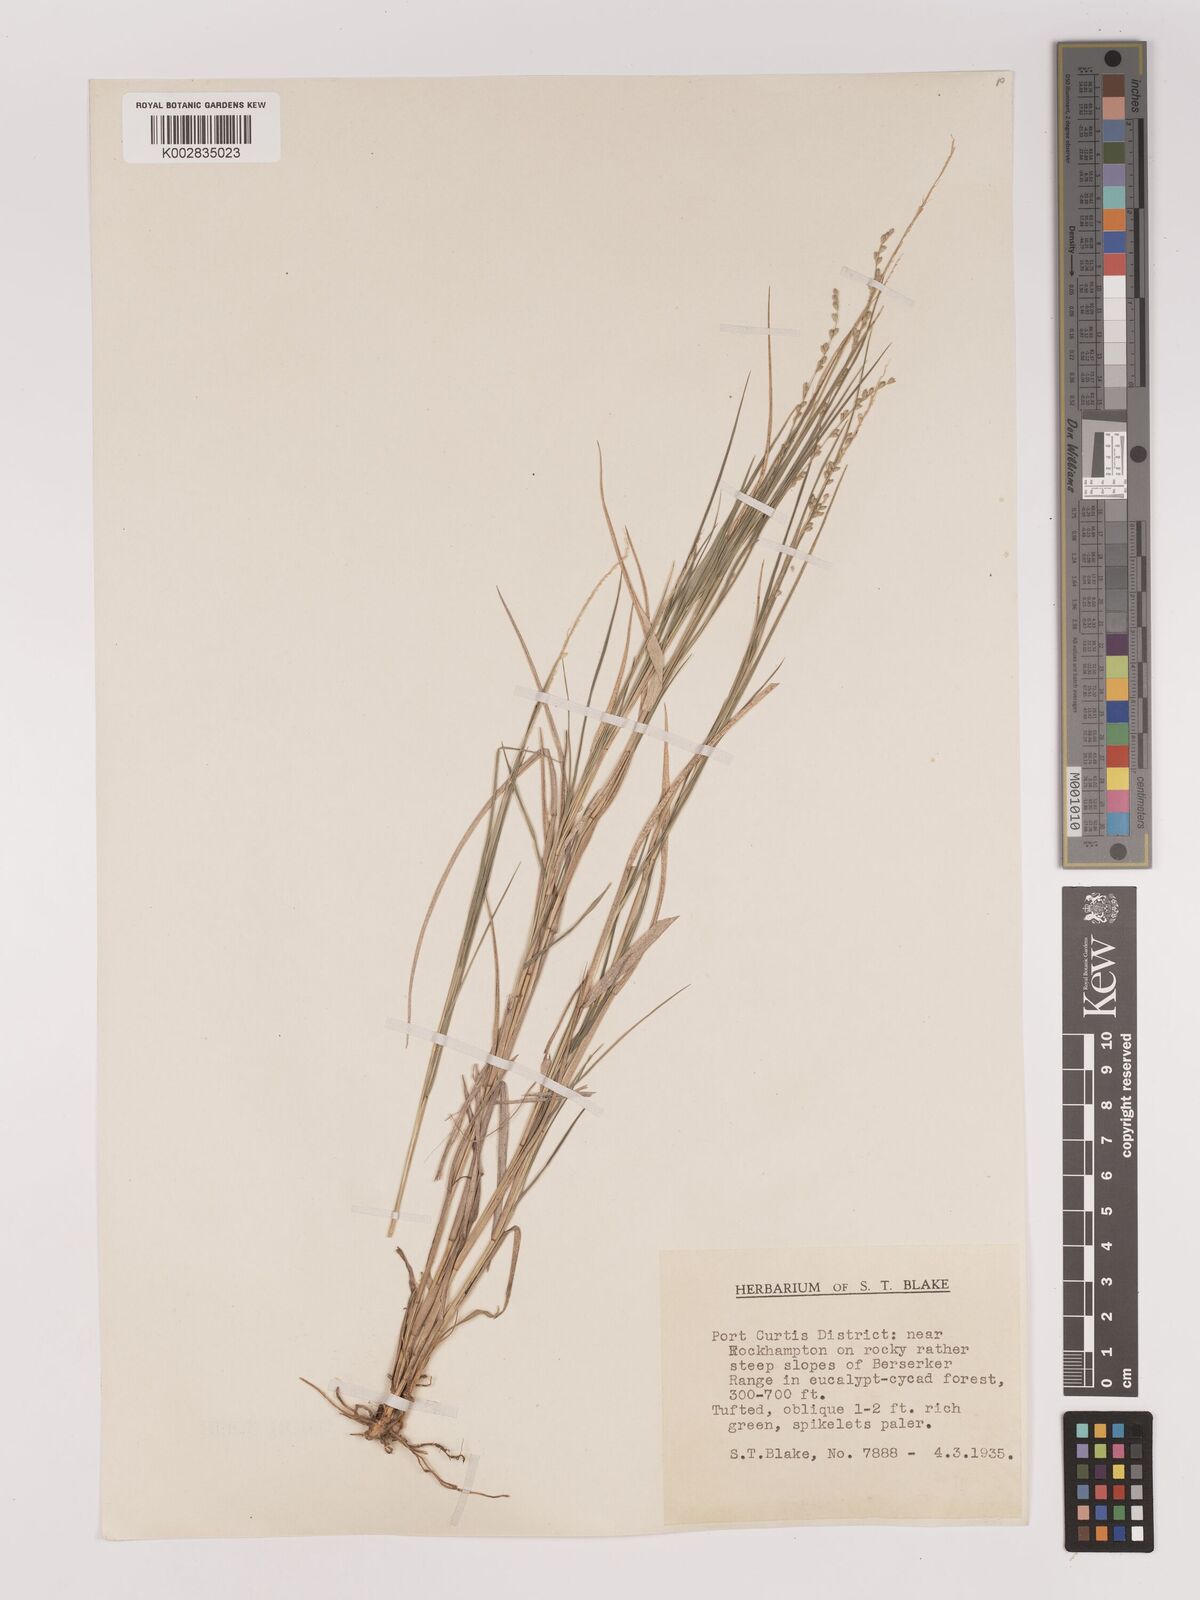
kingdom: Plantae
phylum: Tracheophyta
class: Liliopsida
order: Poales
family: Poaceae
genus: Setaria
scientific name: Setaria
